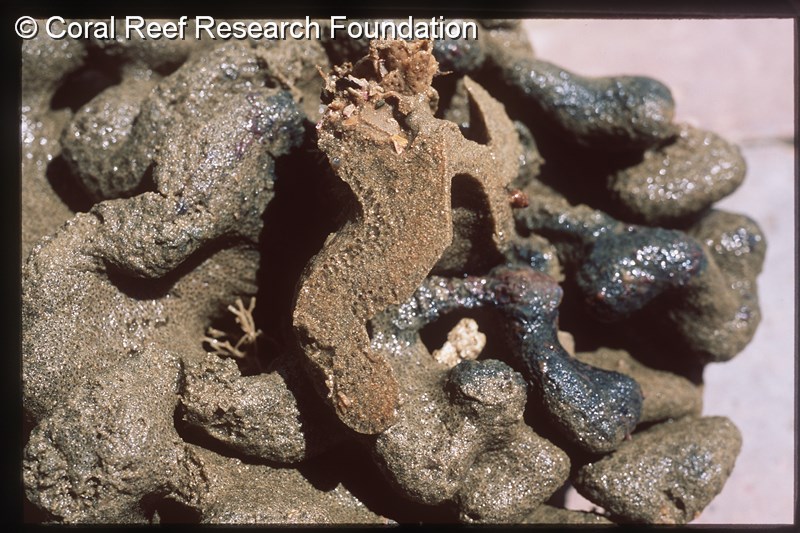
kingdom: Animalia
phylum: Chordata
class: Ascidiacea
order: Aplousobranchia
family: Polyclinidae
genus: Aplidium
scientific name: Aplidium pantherinum
